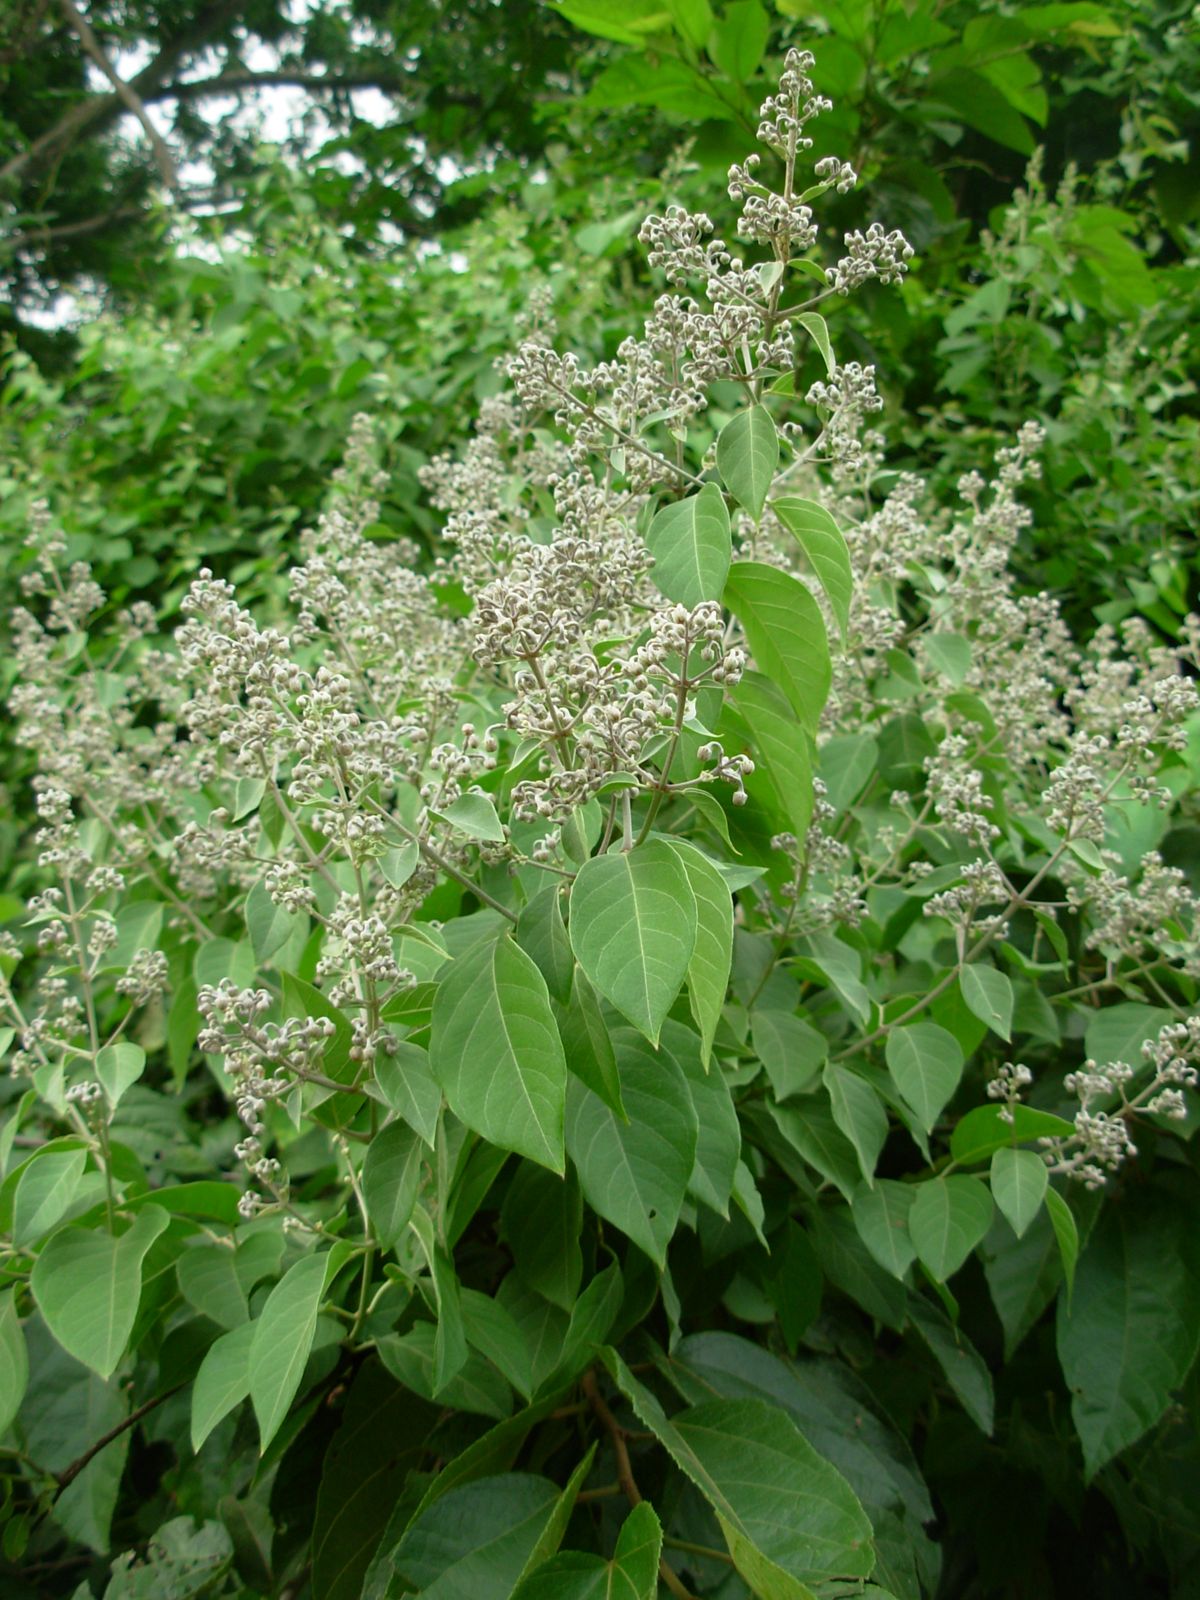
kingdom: Plantae
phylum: Tracheophyta
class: Magnoliopsida
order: Malpighiales
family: Malpighiaceae
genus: Banisteriopsis
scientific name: Banisteriopsis muricata
